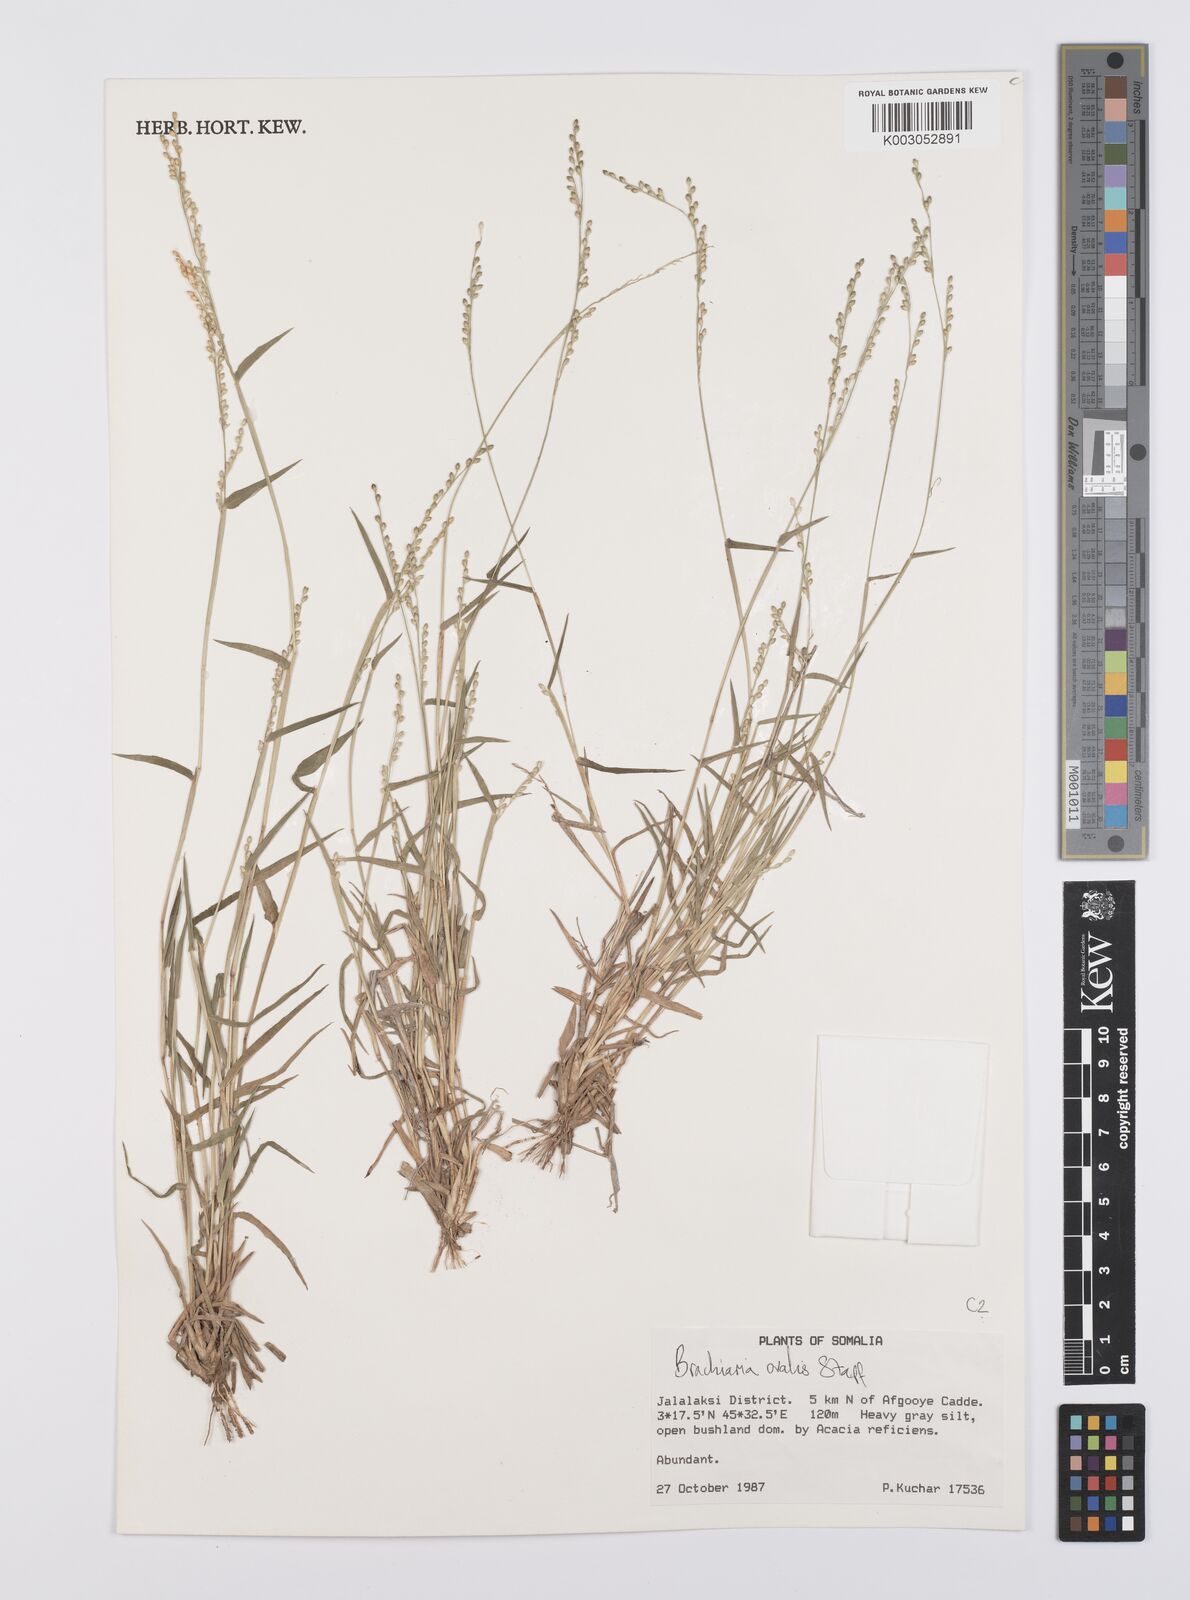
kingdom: Plantae
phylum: Tracheophyta
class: Liliopsida
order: Poales
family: Poaceae
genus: Urochloa
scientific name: Urochloa ovalis
